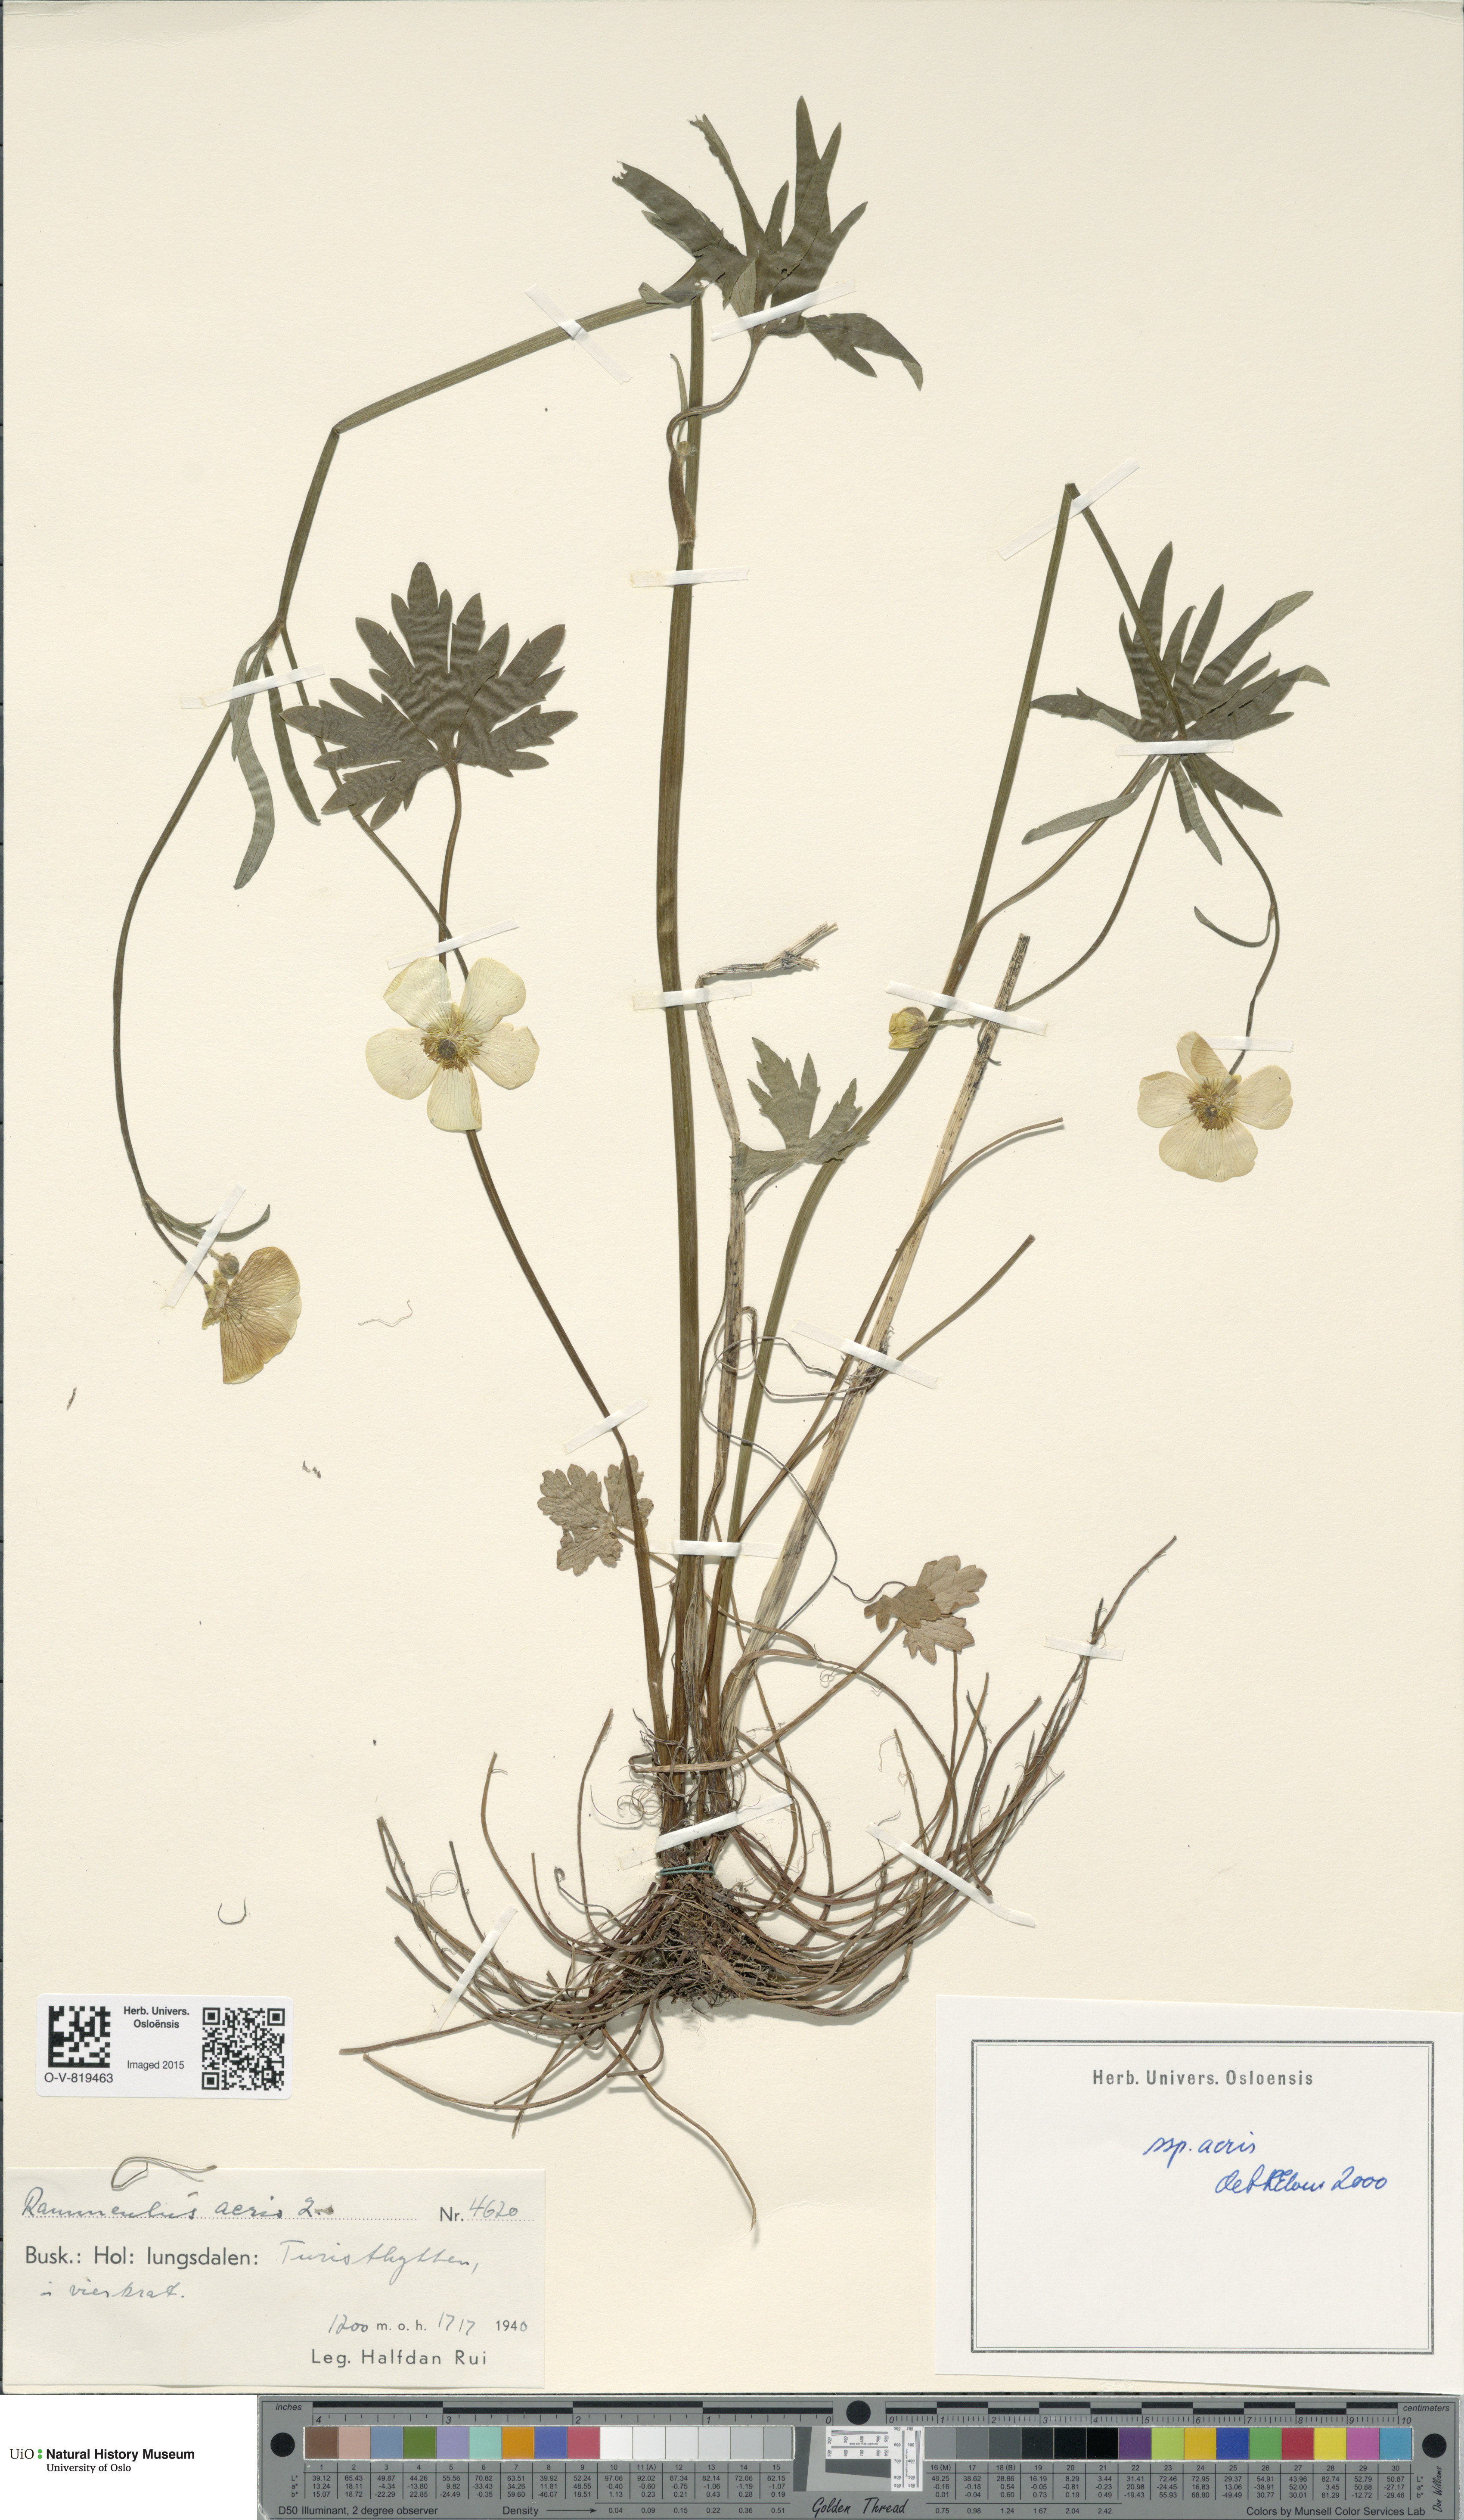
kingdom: Plantae
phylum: Tracheophyta
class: Magnoliopsida
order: Ranunculales
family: Ranunculaceae
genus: Ranunculus
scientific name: Ranunculus acris
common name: Meadow buttercup
